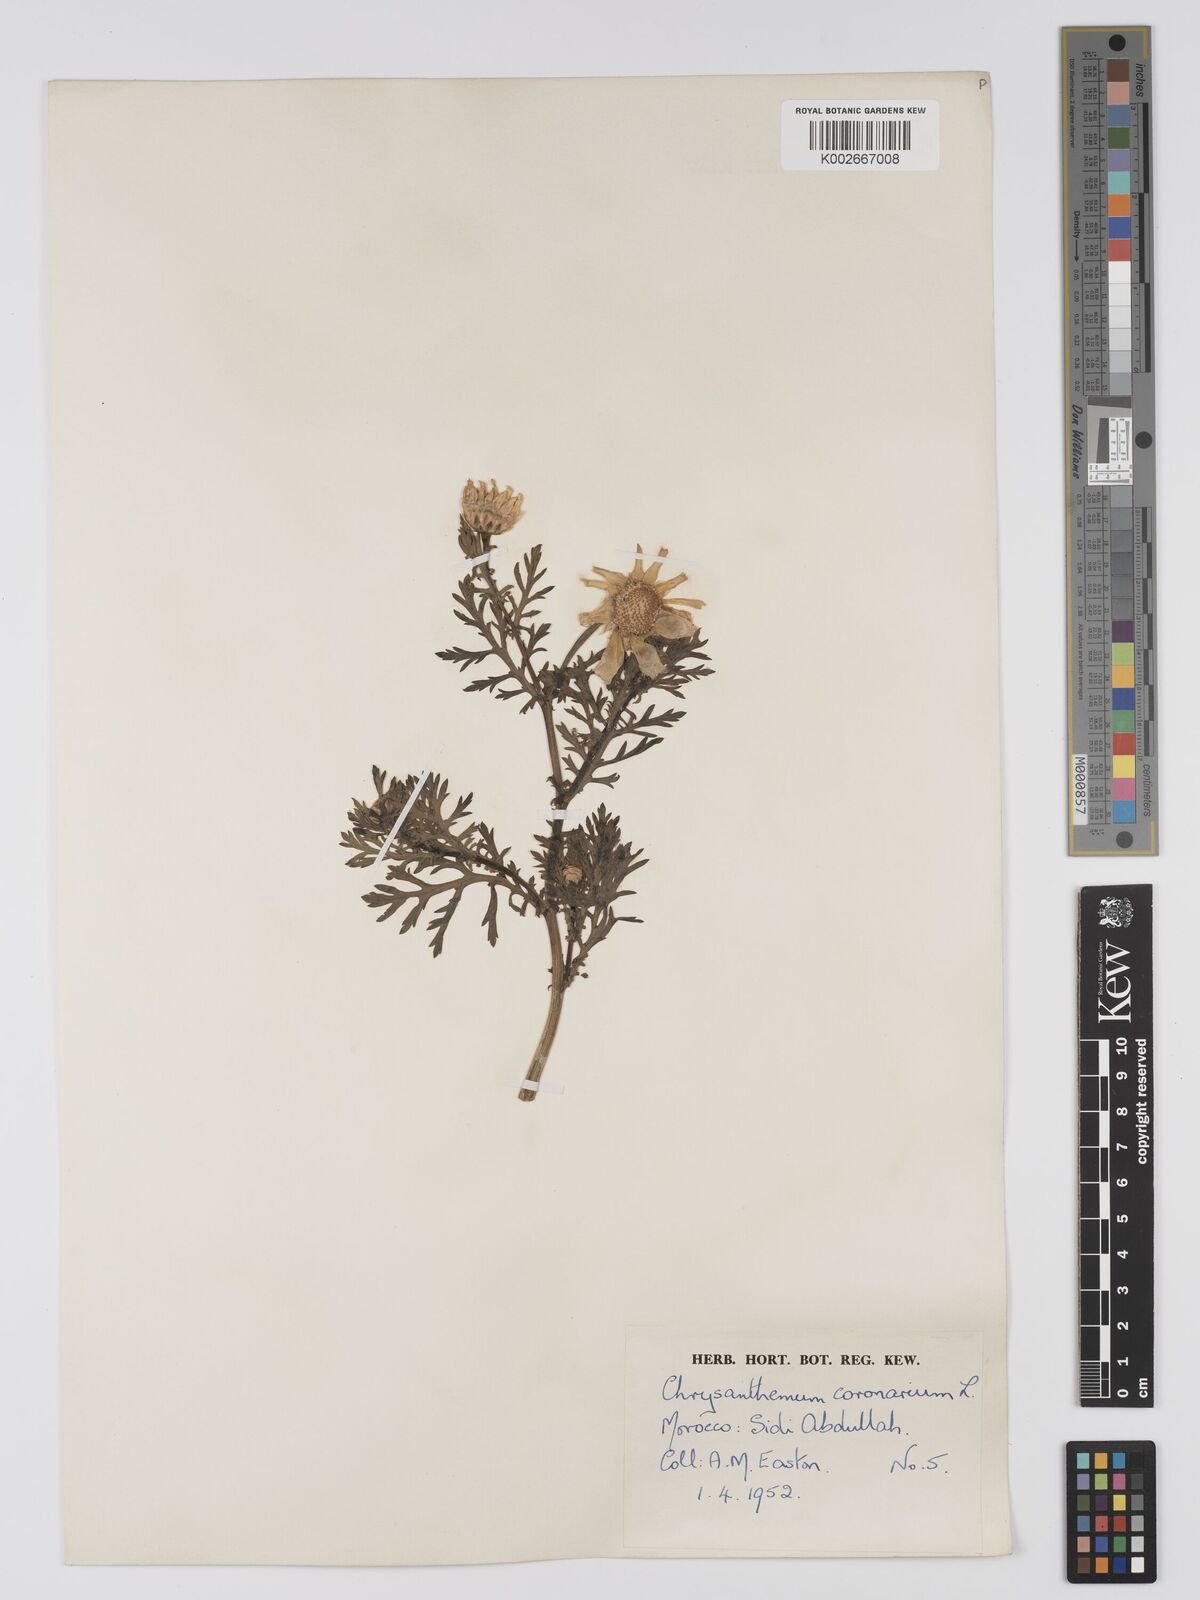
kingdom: Plantae
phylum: Tracheophyta
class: Magnoliopsida
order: Asterales
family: Asteraceae
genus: Glebionis
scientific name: Glebionis coronaria
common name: Crowndaisy
